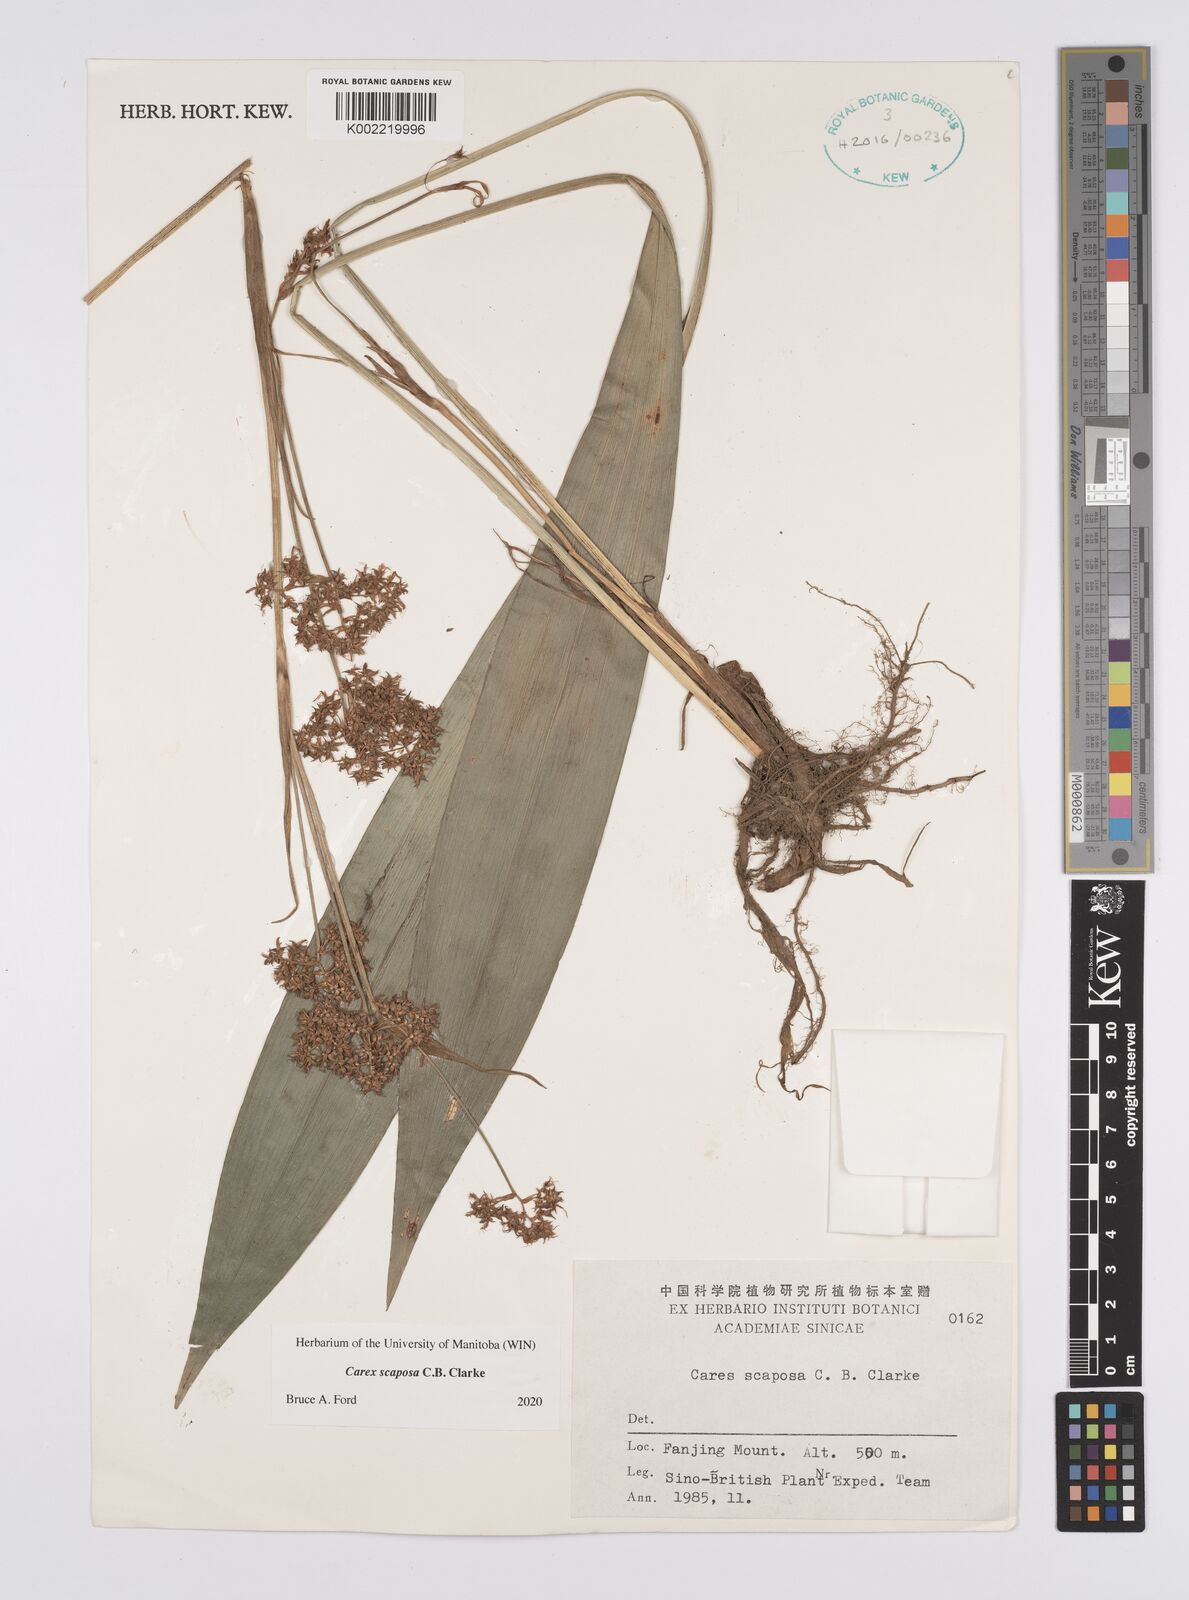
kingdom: Plantae
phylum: Tracheophyta
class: Liliopsida
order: Poales
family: Cyperaceae
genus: Carex
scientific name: Carex scaposa
